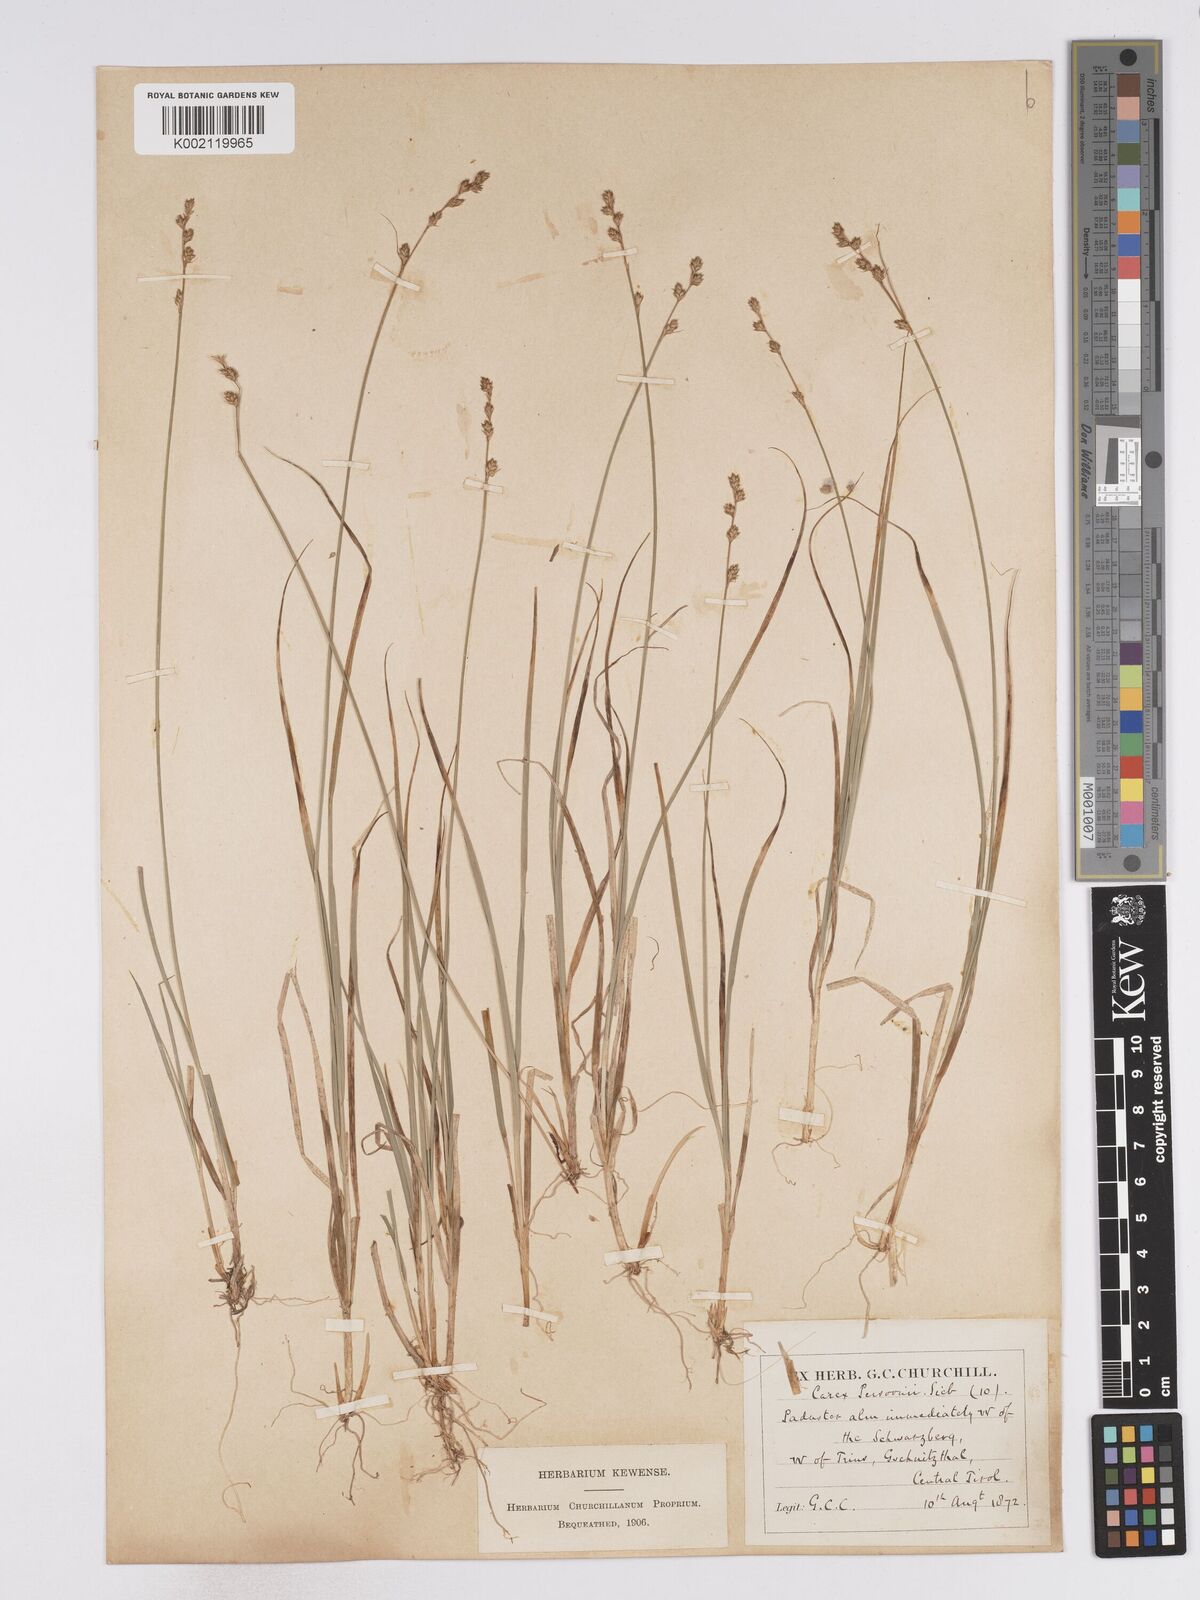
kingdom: Plantae
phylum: Tracheophyta
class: Liliopsida
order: Poales
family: Cyperaceae
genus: Carex
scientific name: Carex canescens
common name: White sedge
